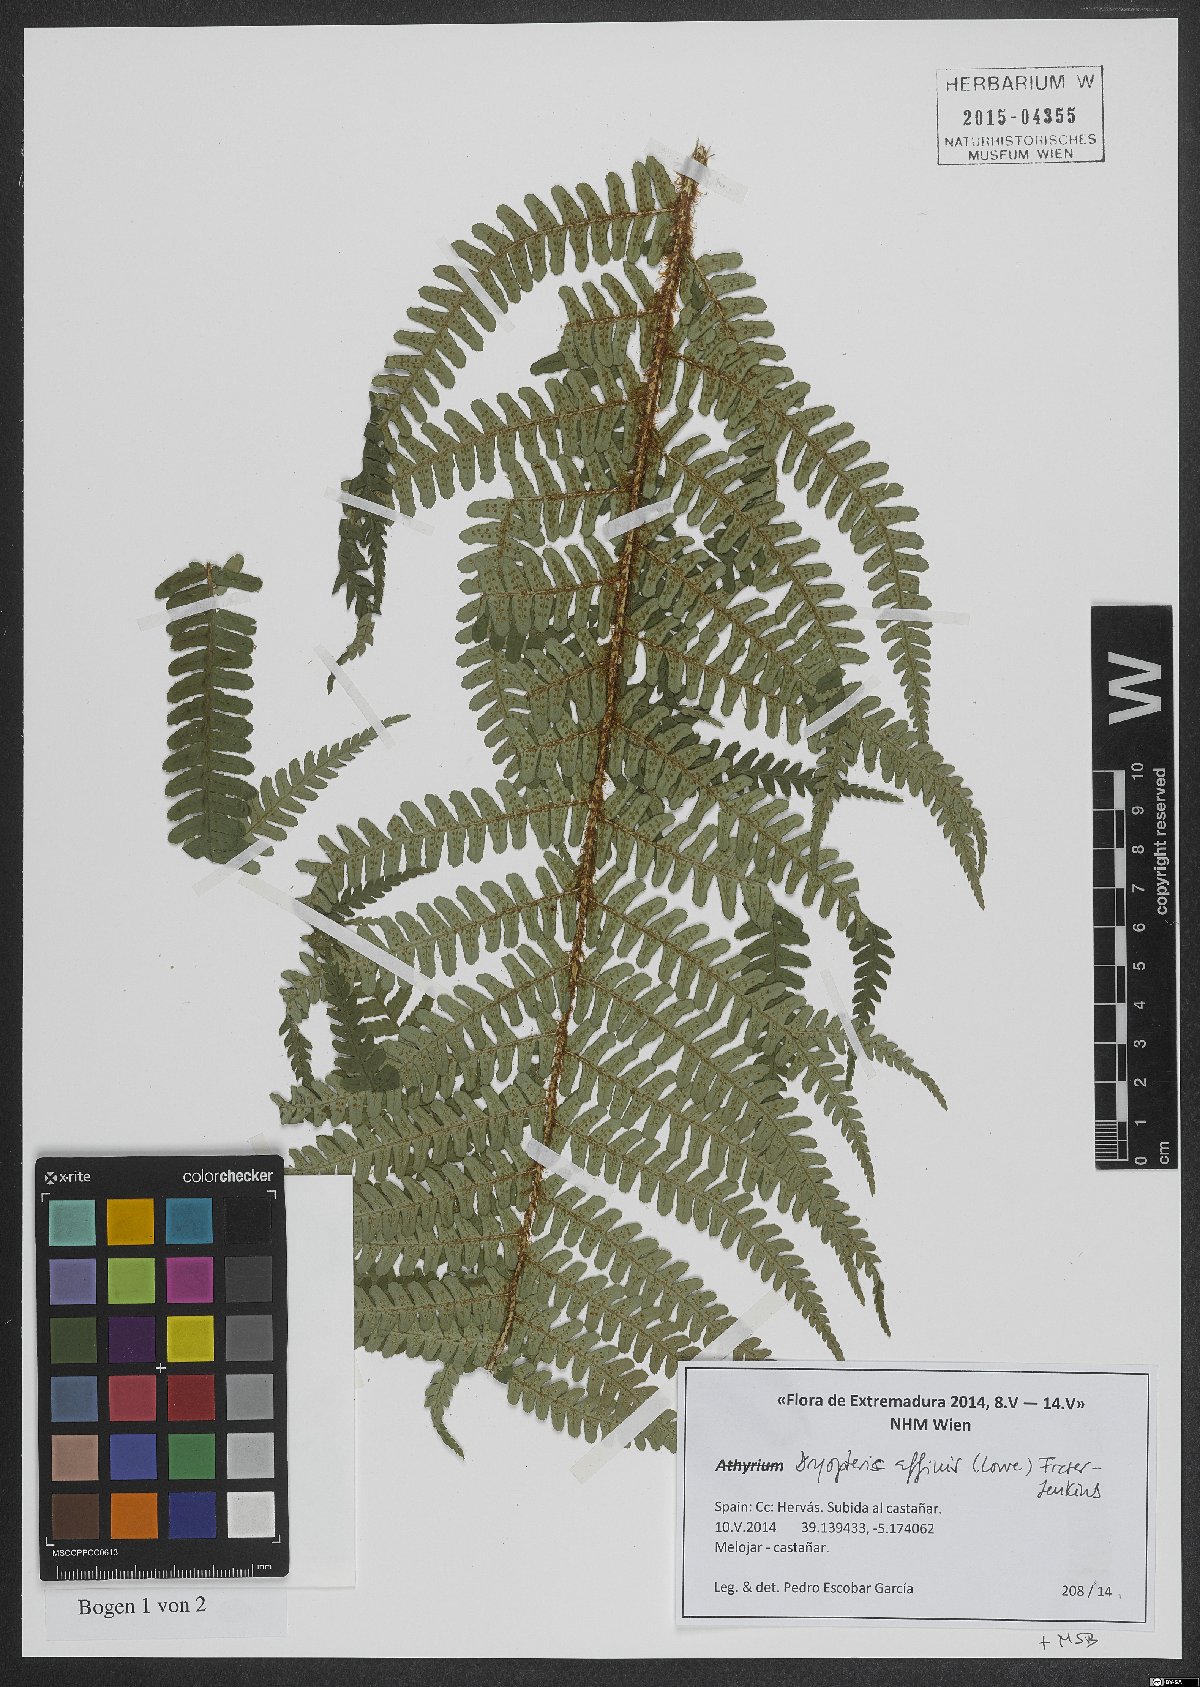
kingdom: Plantae
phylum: Tracheophyta
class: Polypodiopsida
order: Polypodiales
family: Dryopteridaceae
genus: Dryopteris
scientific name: Dryopteris affinis
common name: Scaly male fern
